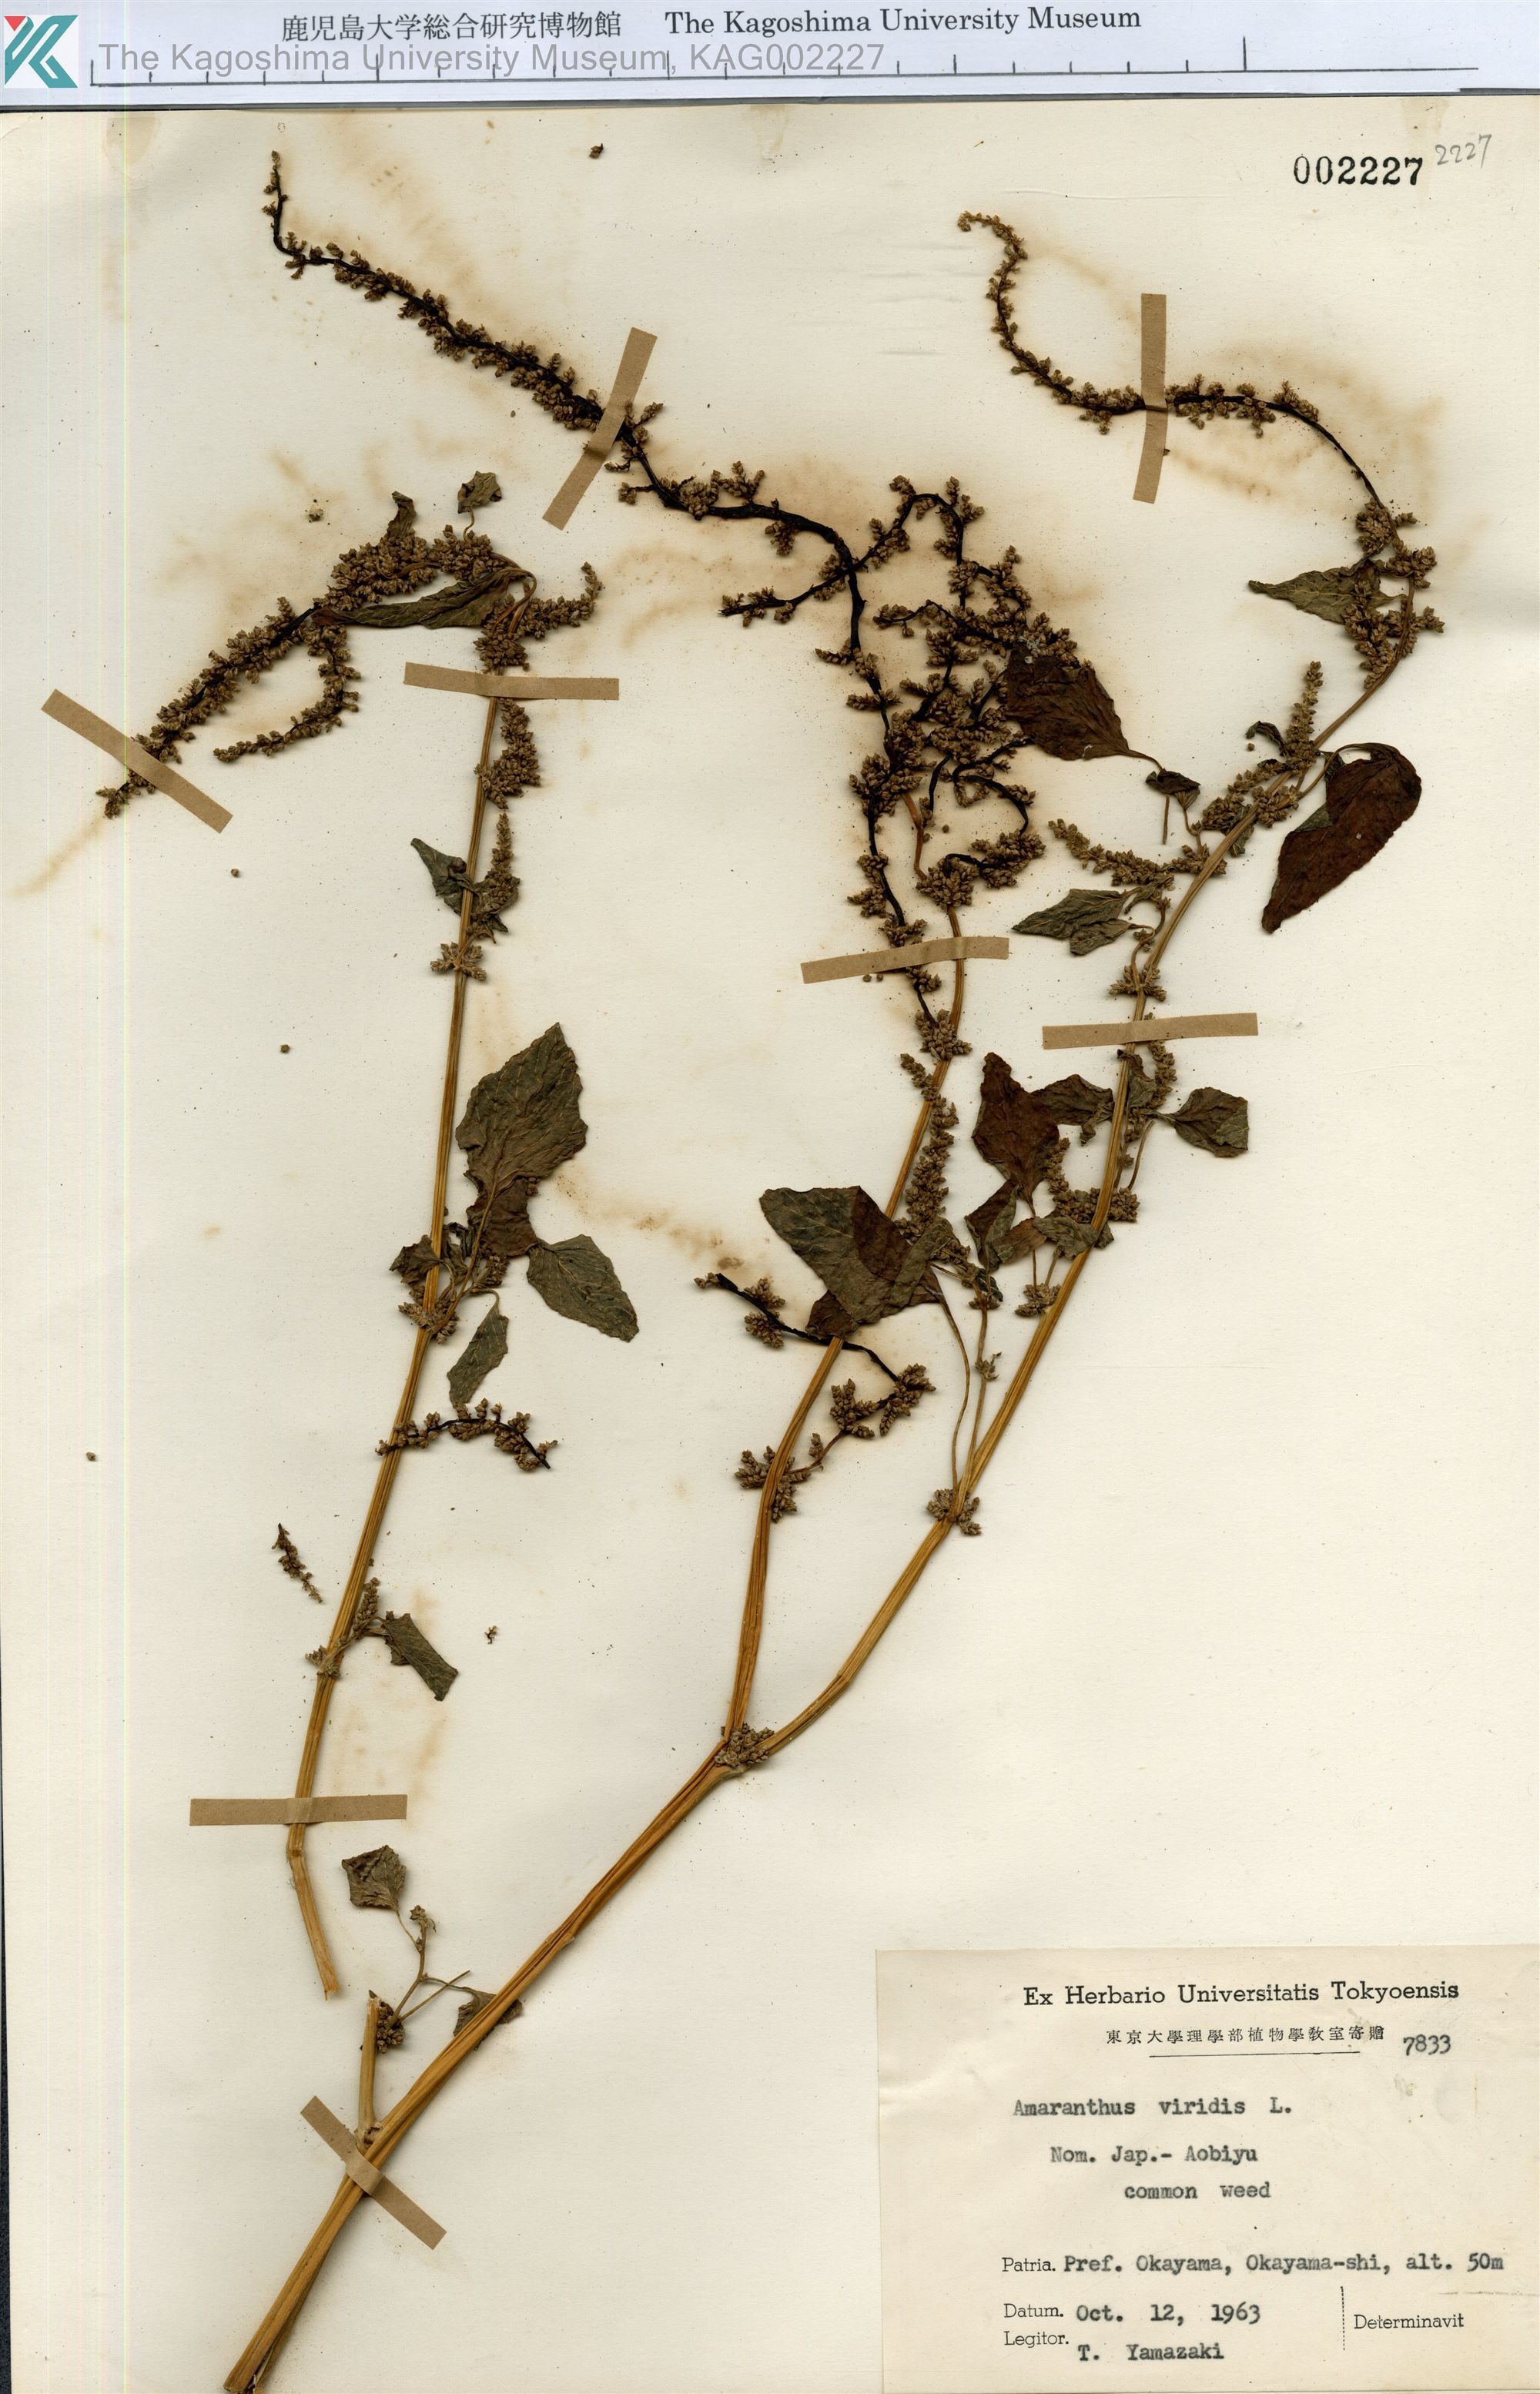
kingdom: Plantae
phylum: Tracheophyta
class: Magnoliopsida
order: Caryophyllales
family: Amaranthaceae
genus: Amaranthus
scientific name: Amaranthus viridis
